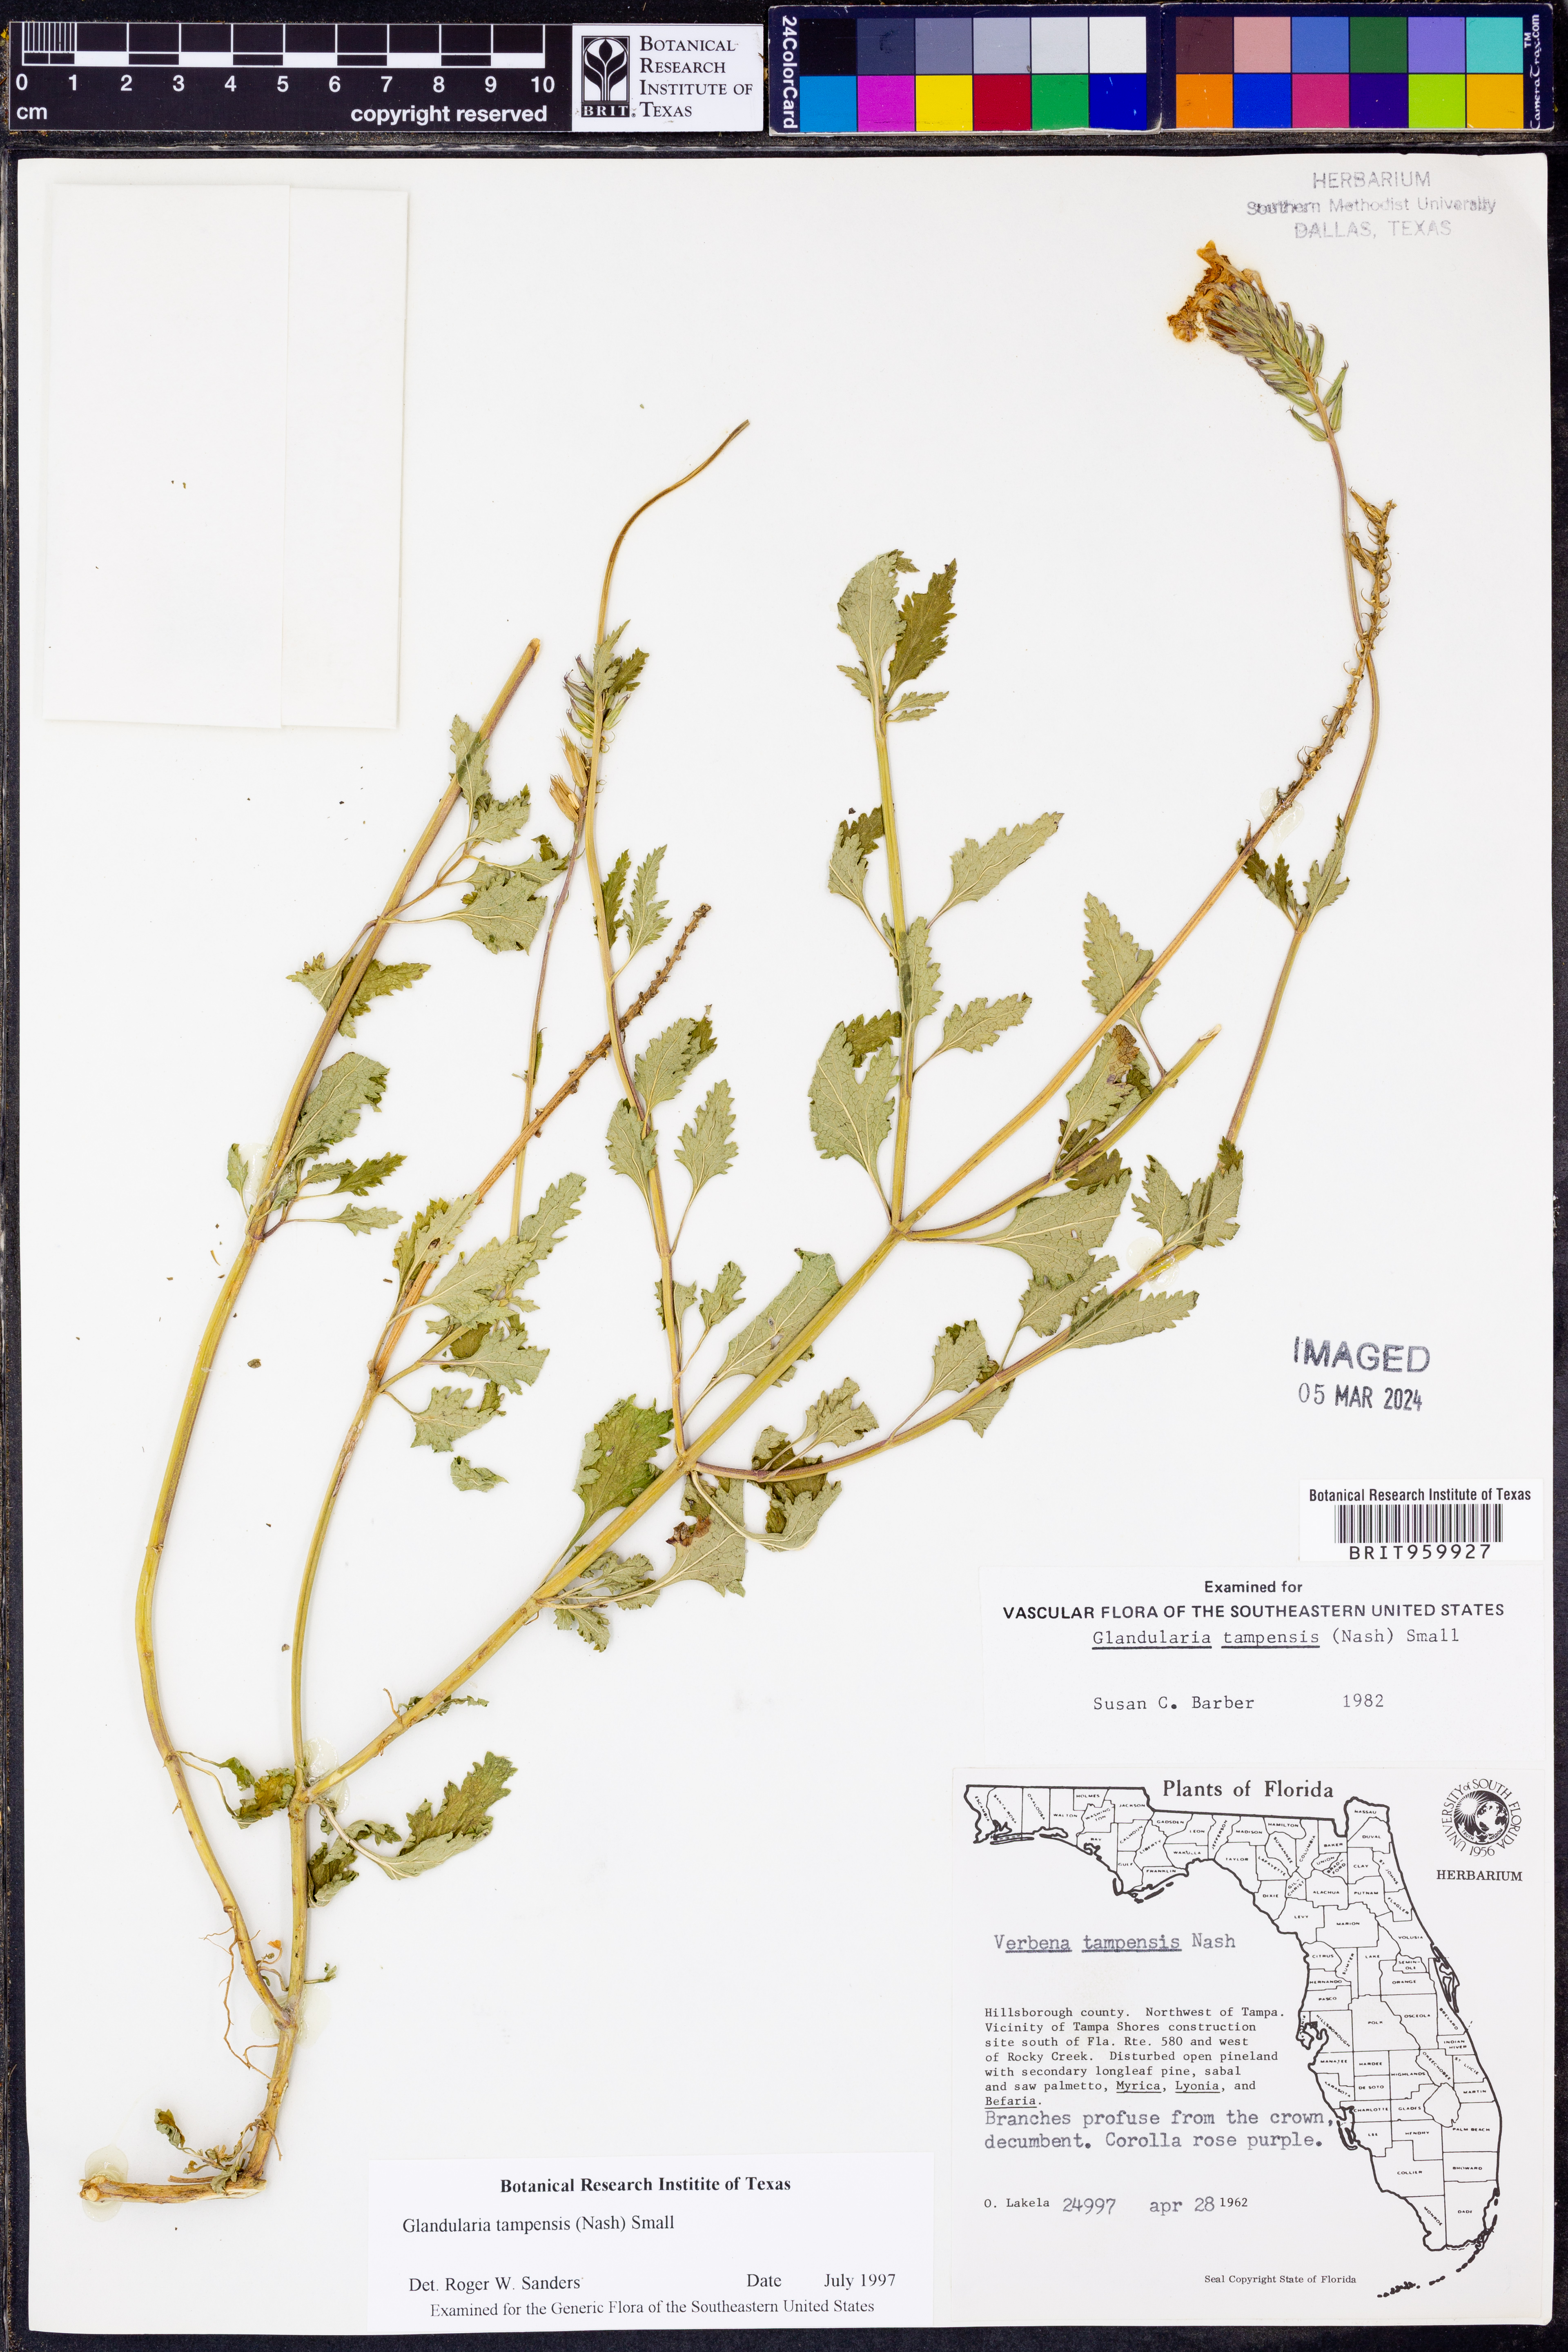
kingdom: Plantae
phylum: Tracheophyta
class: Magnoliopsida
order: Lamiales
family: Verbenaceae
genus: Verbena
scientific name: Verbena tampensis
